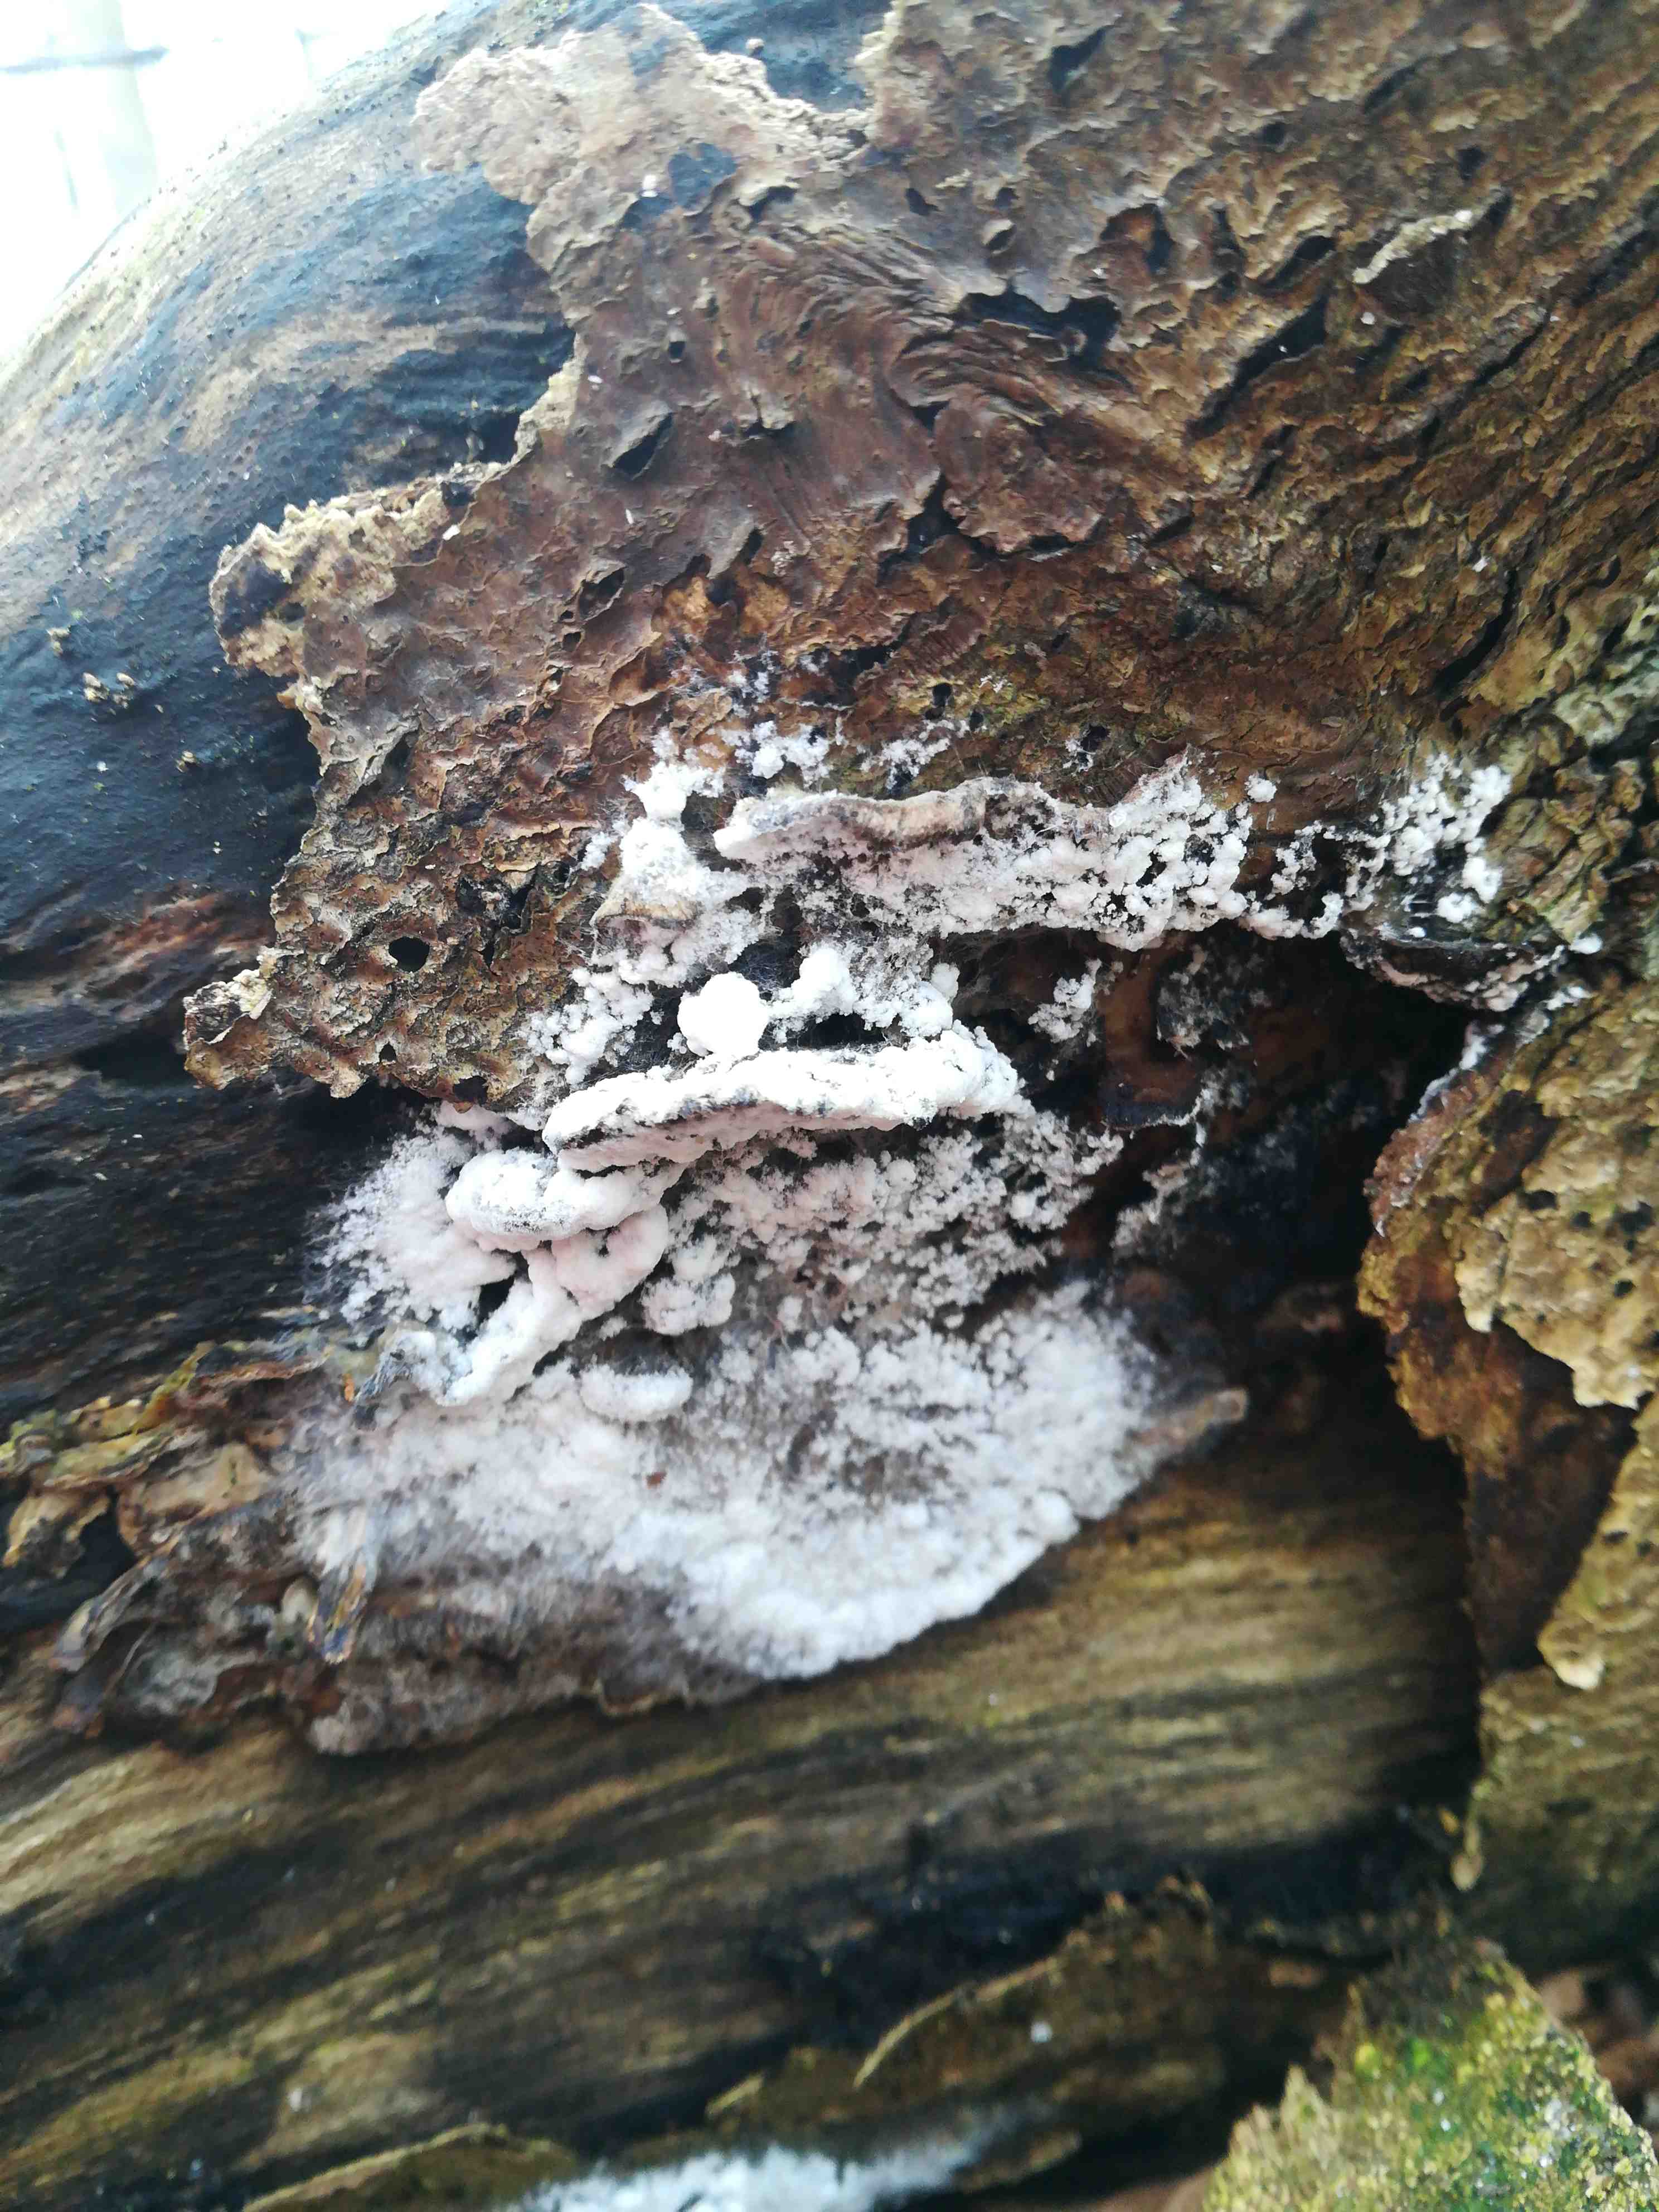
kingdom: Fungi
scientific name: Fungi
